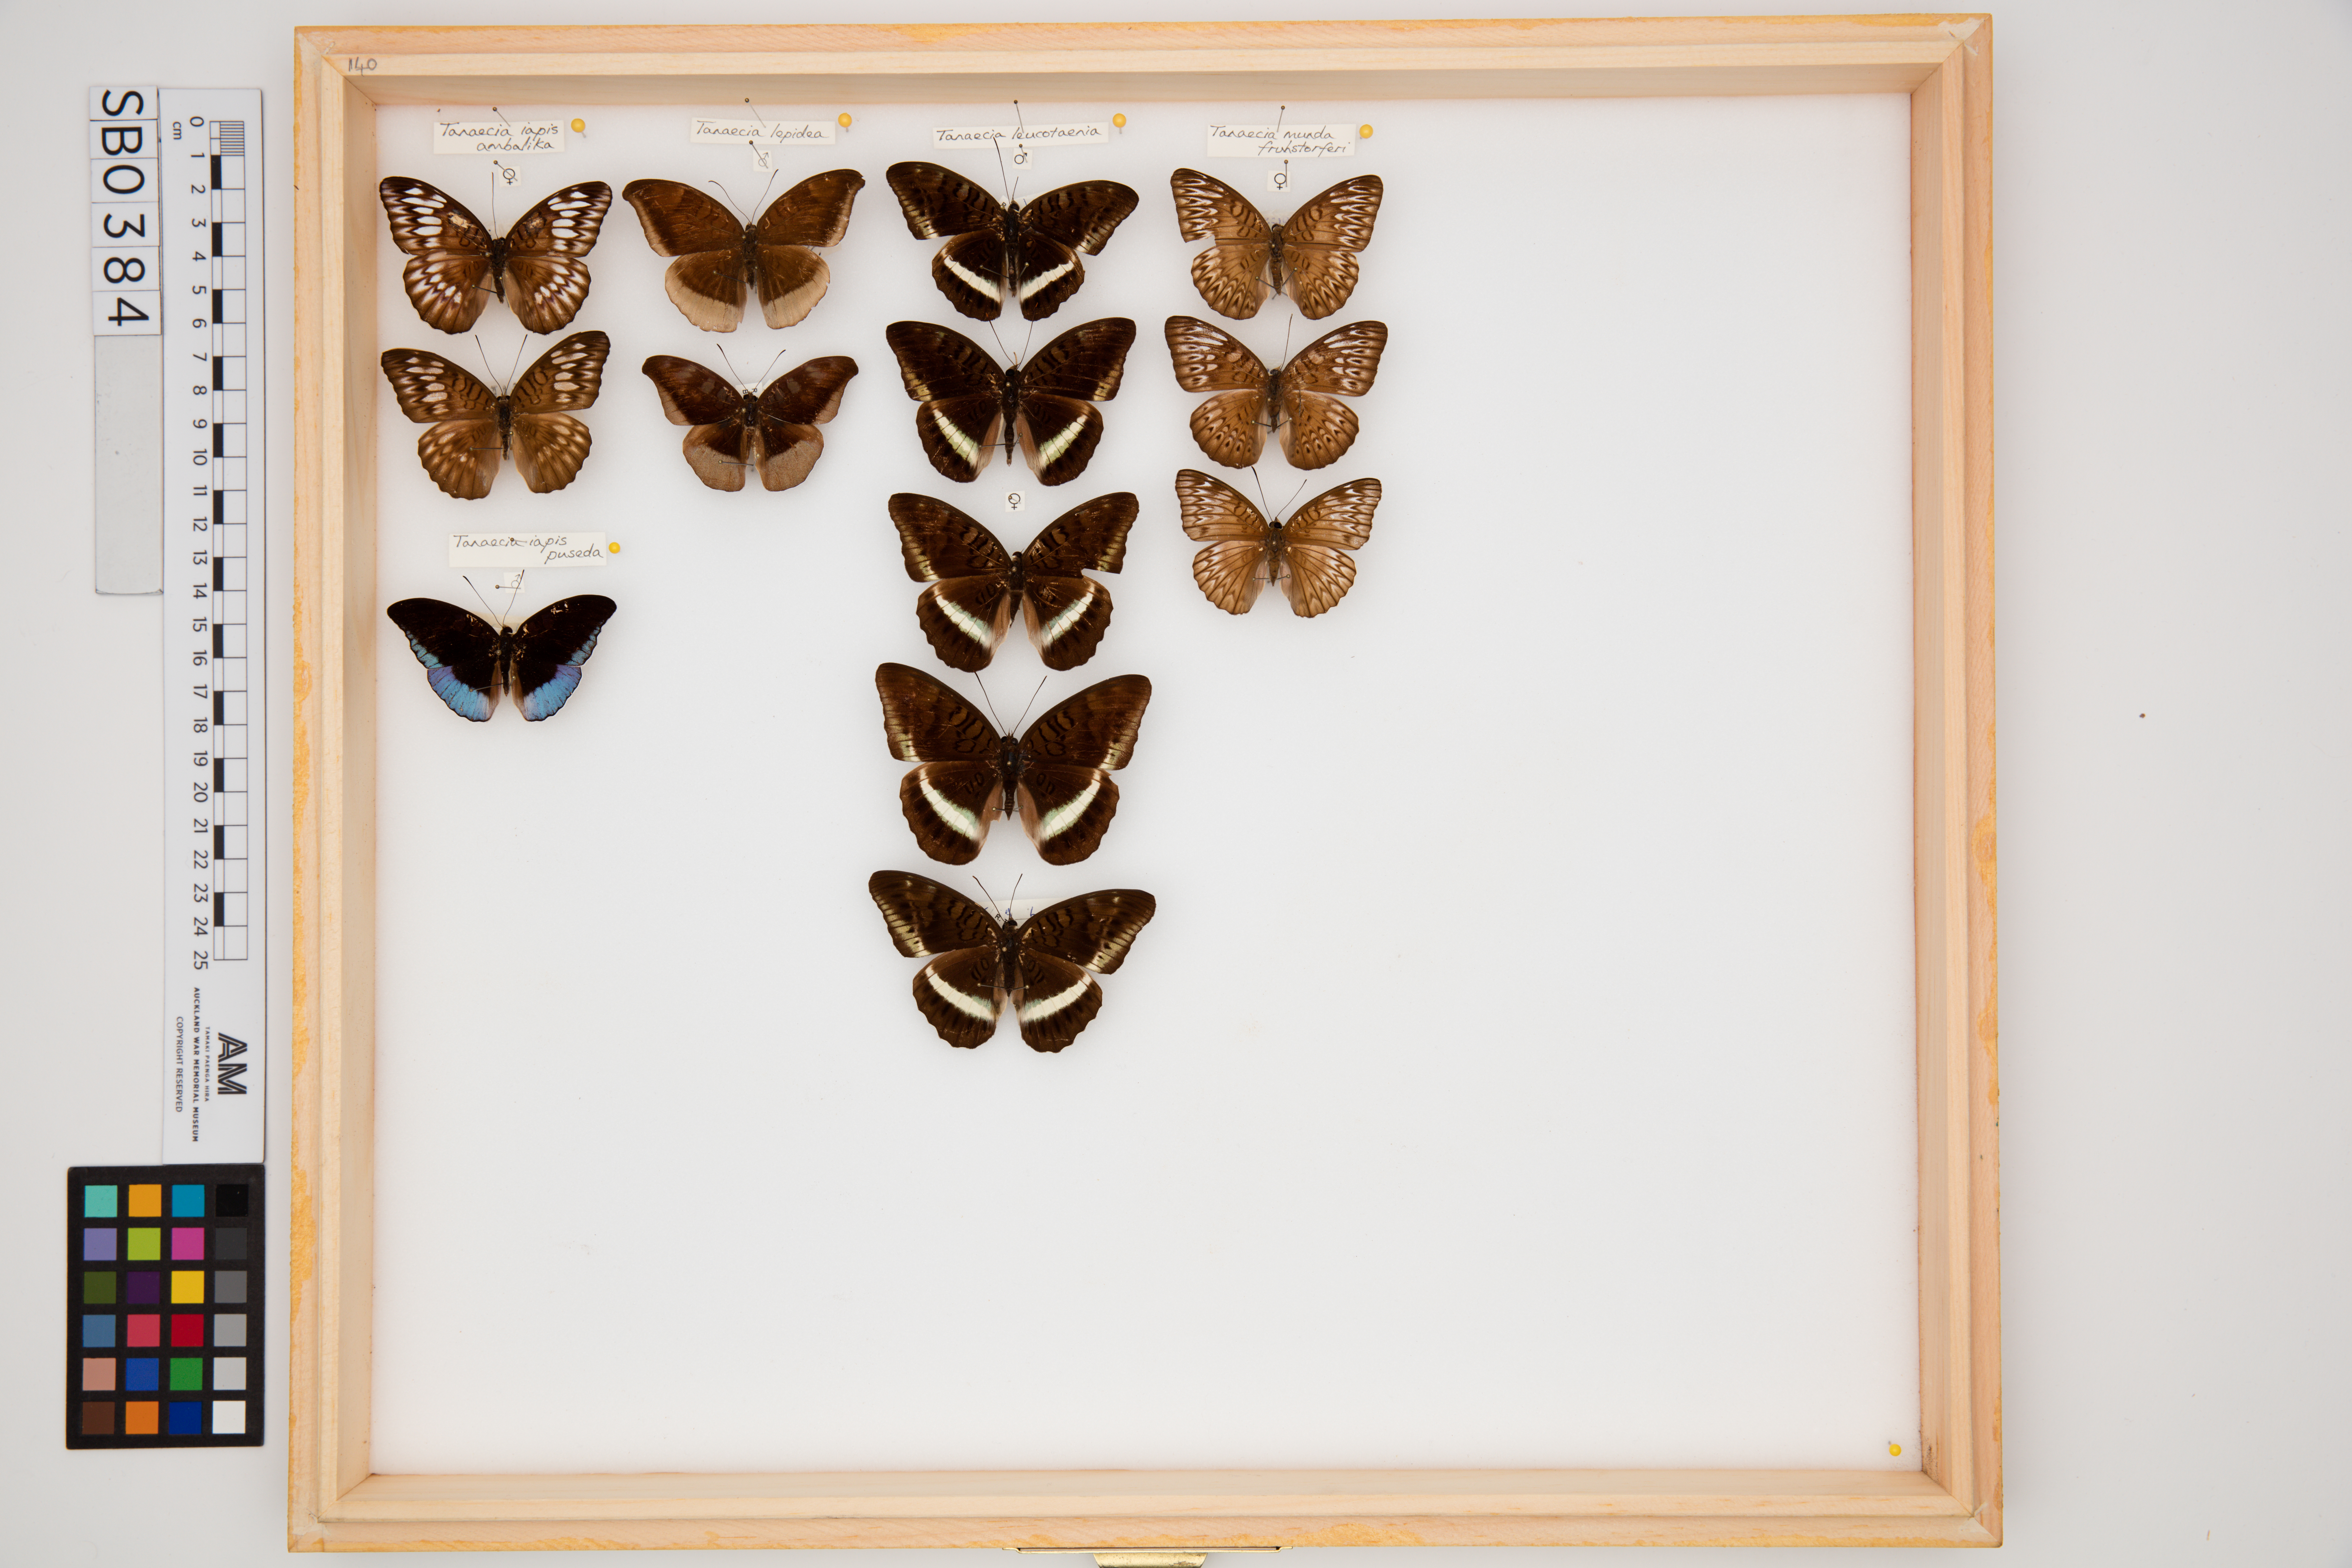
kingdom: Animalia
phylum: Arthropoda
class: Insecta
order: Lepidoptera
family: Nymphalidae
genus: Tanaecia
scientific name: Tanaecia munda
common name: Peninsular viscount
